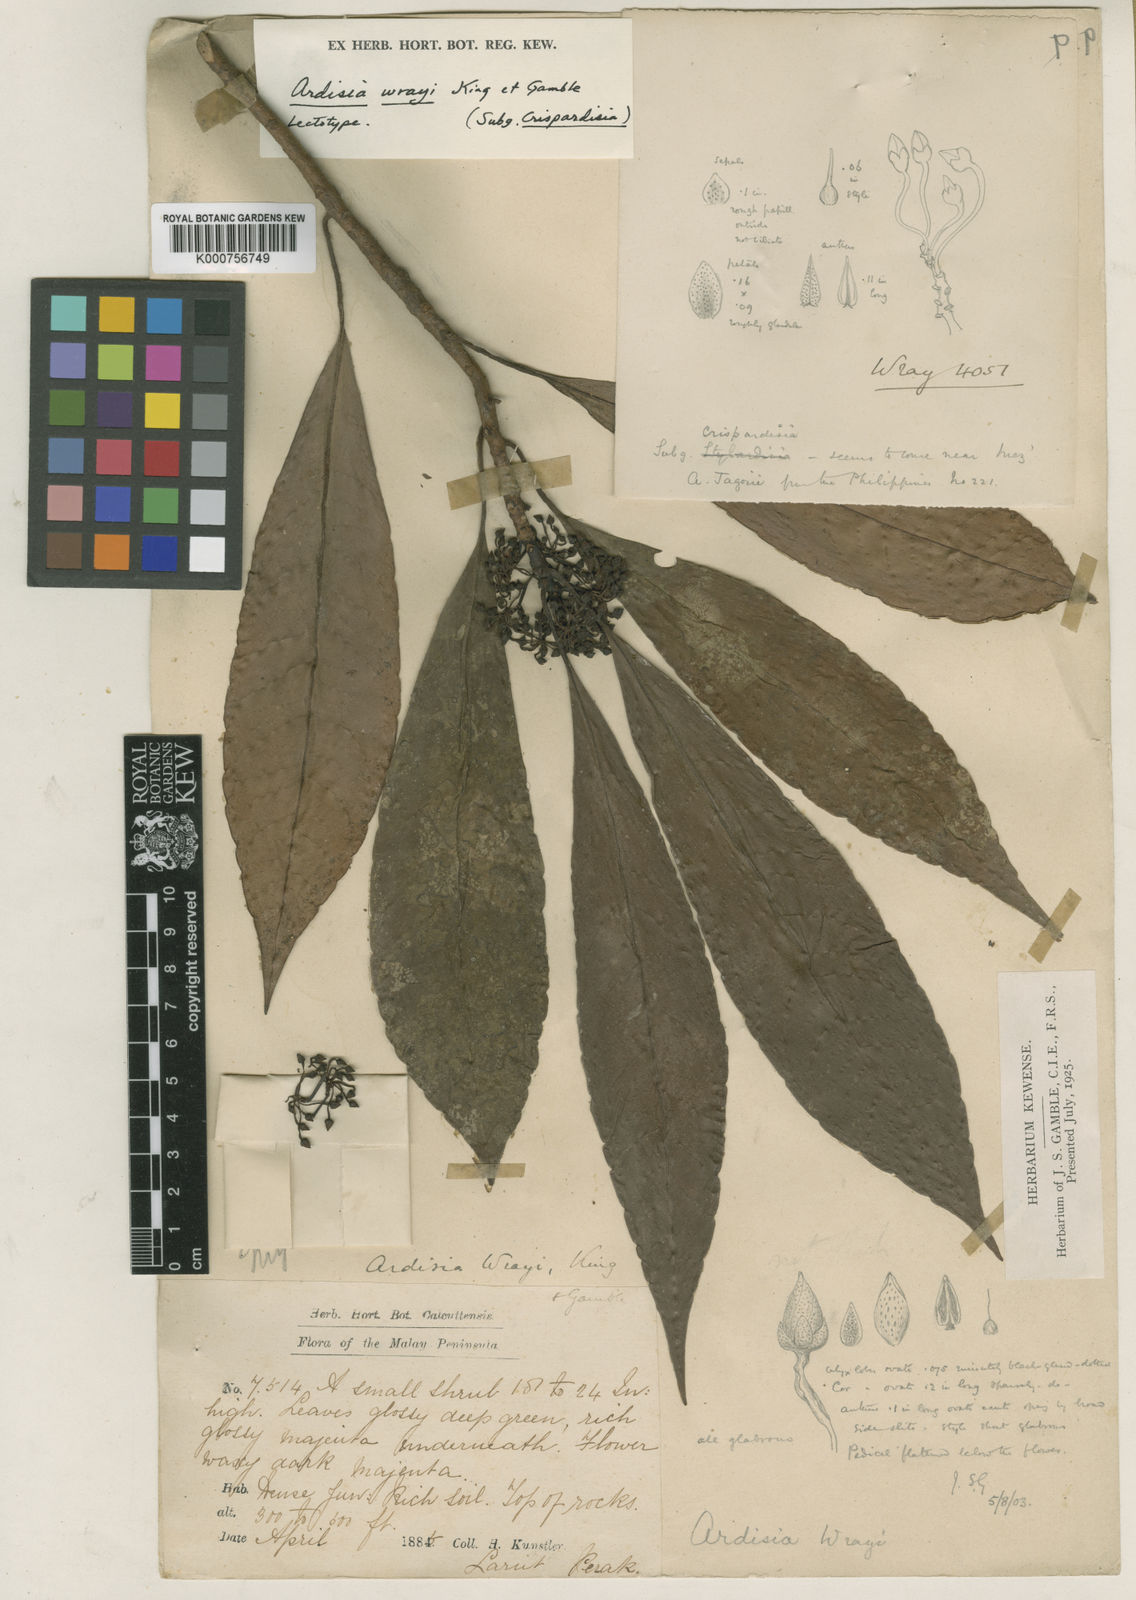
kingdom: Plantae
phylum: Tracheophyta
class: Magnoliopsida
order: Ericales
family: Primulaceae
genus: Ardisia
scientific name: Ardisia sphenobasis
